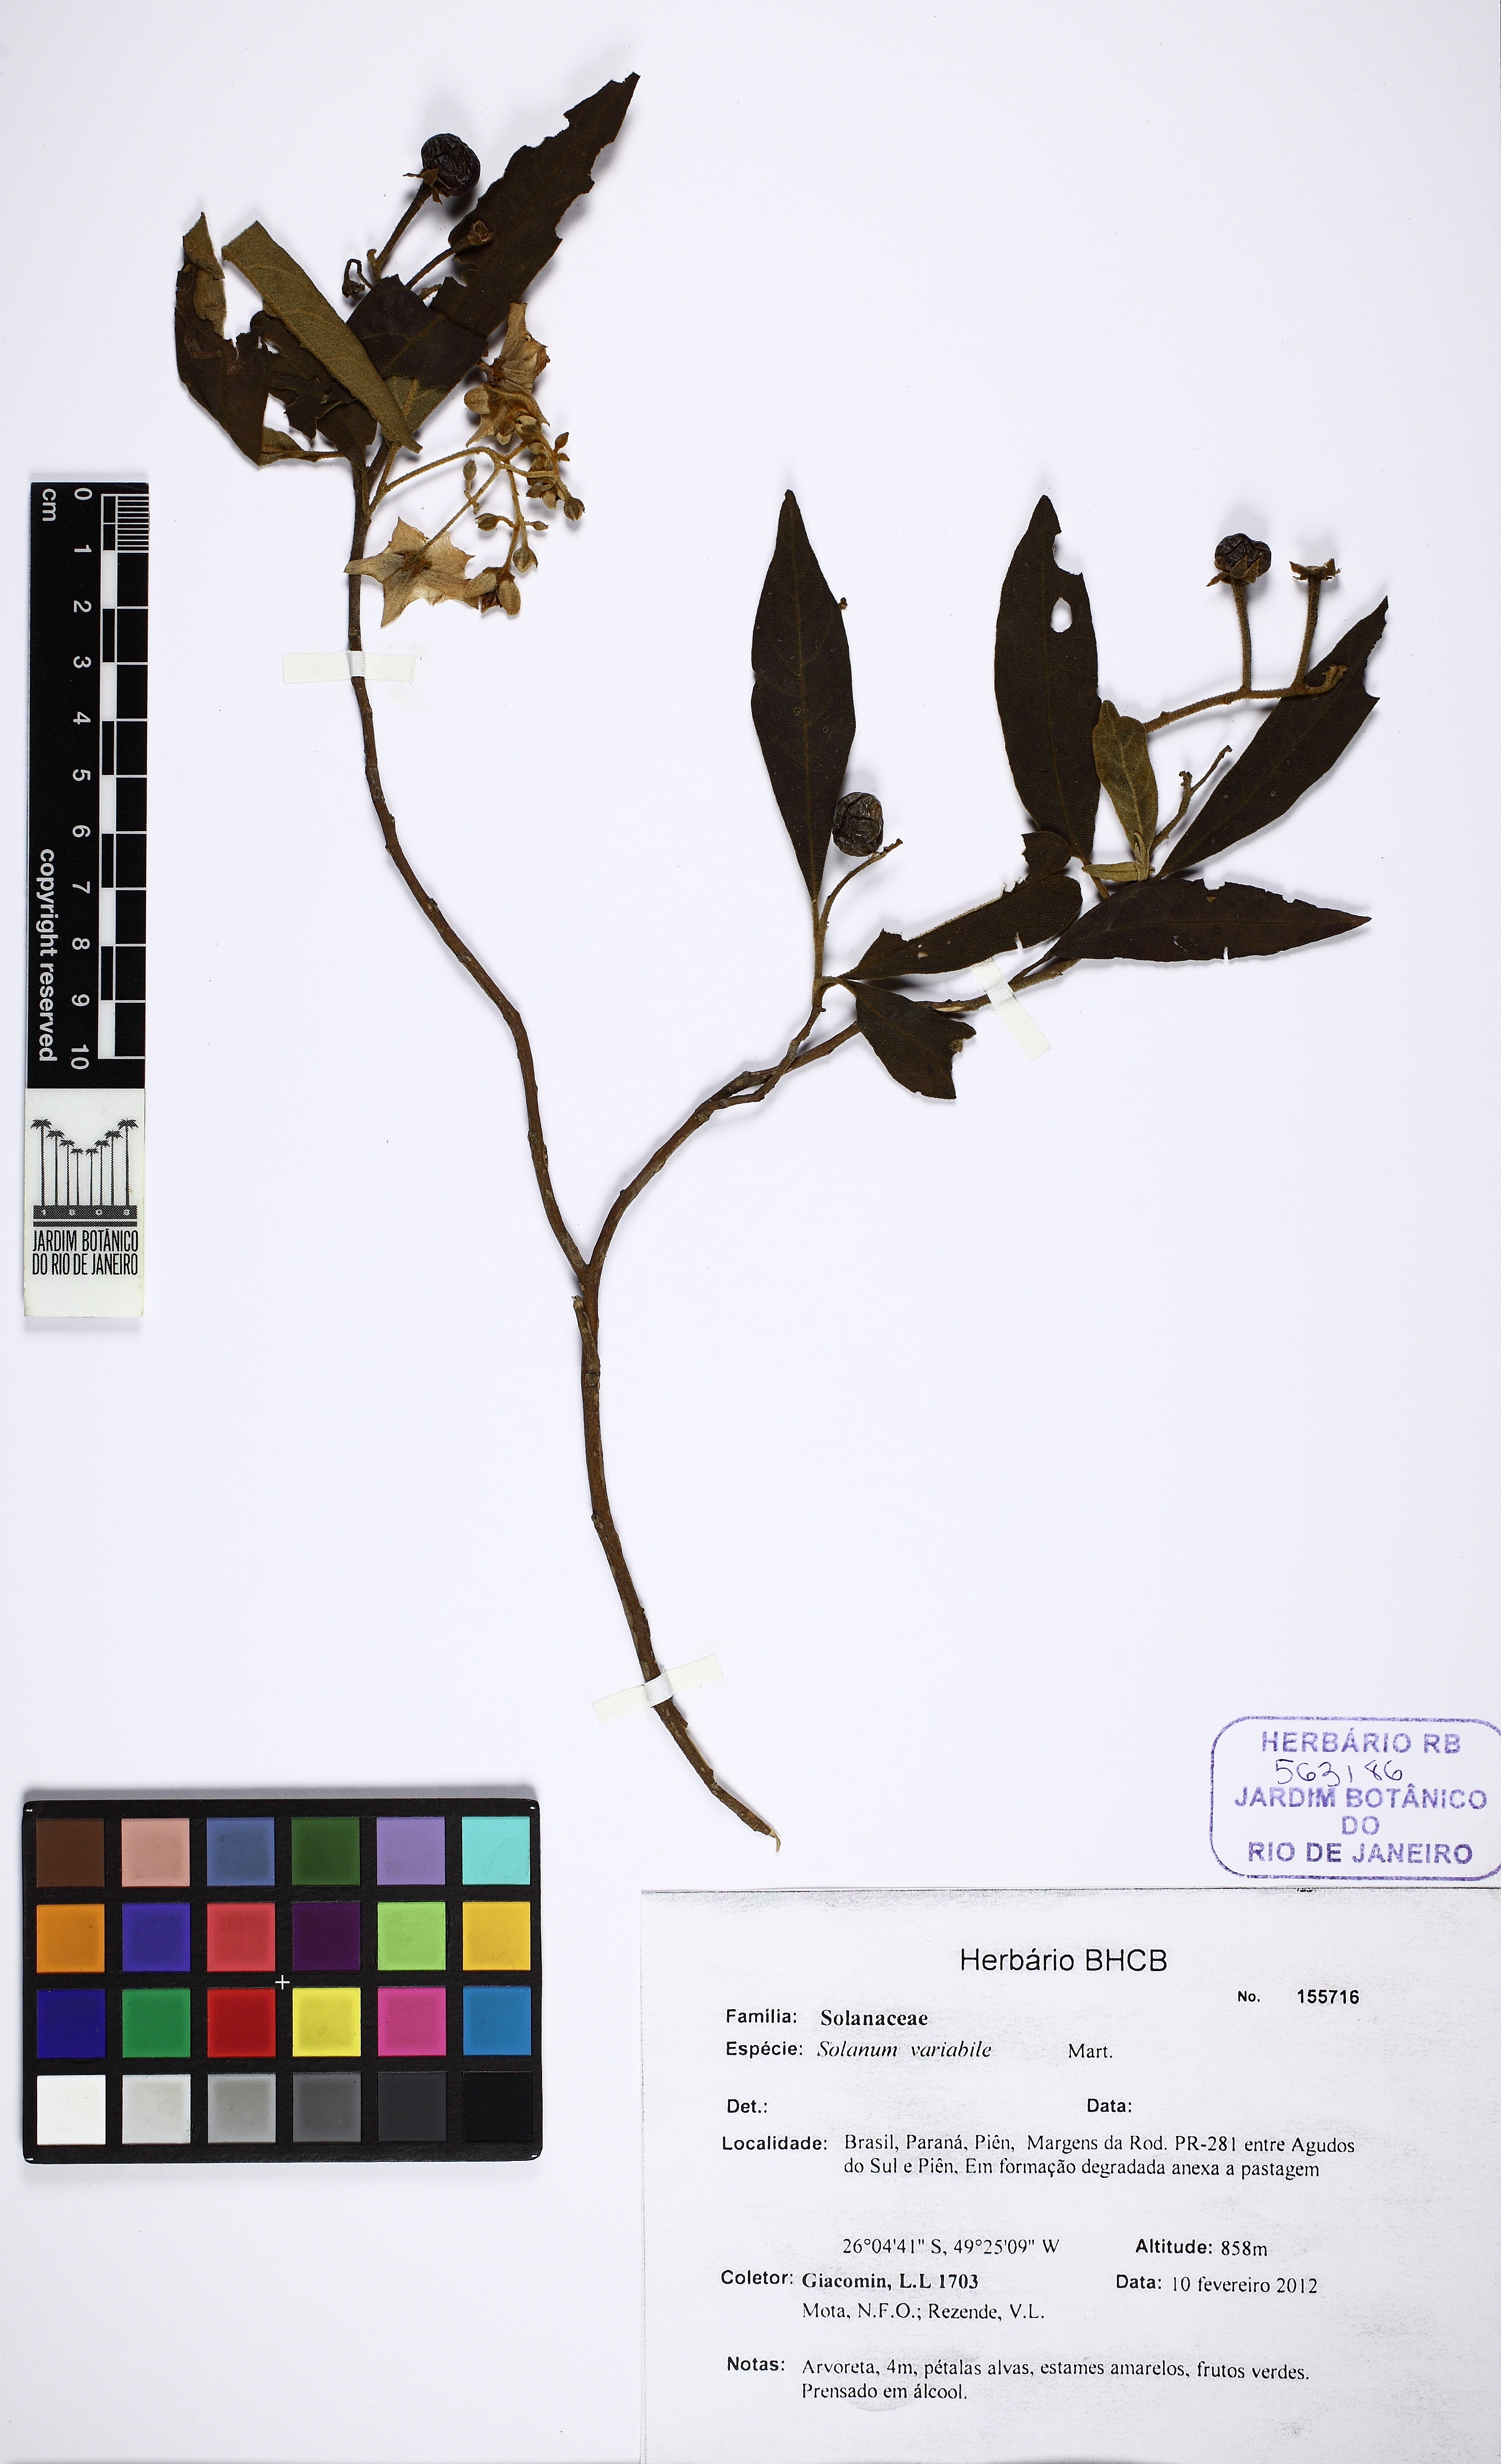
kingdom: Plantae
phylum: Tracheophyta
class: Magnoliopsida
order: Solanales
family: Solanaceae
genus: Solanum
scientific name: Solanum mauritianum
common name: Earleaf nightshade
